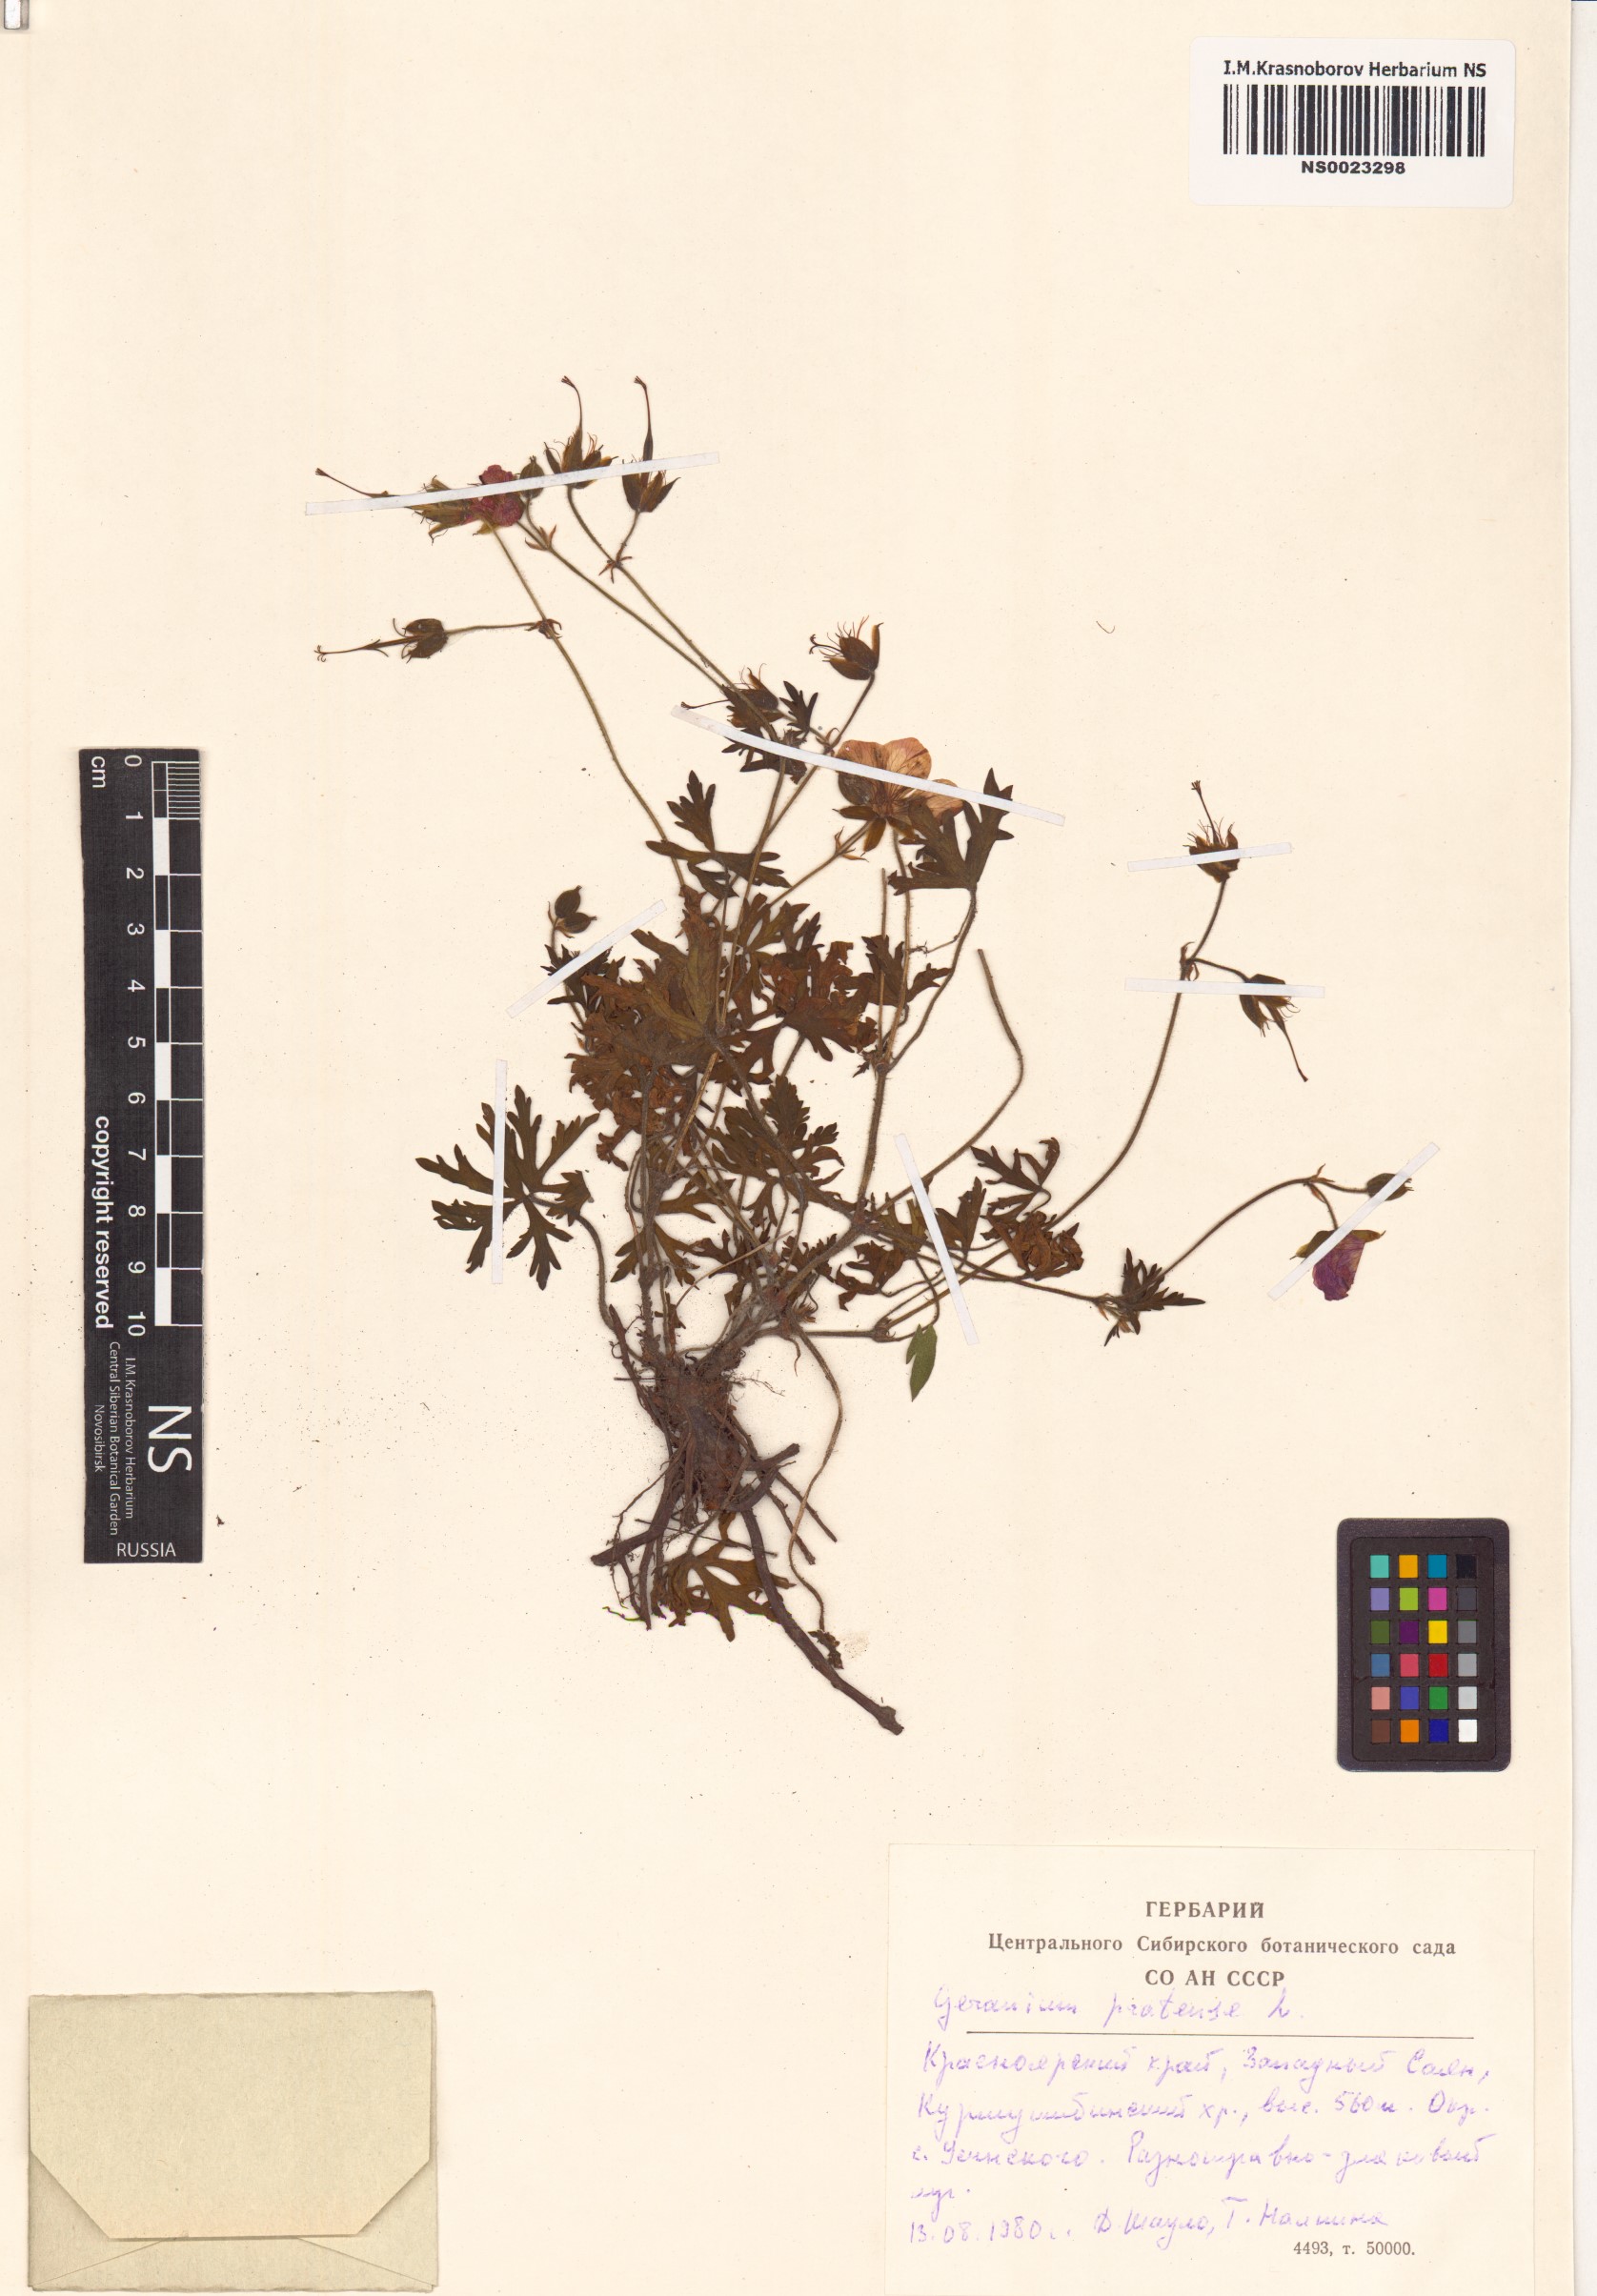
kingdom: Plantae
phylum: Tracheophyta
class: Magnoliopsida
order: Geraniales
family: Geraniaceae
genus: Geranium
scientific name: Geranium pratense
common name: Meadow crane's-bill
